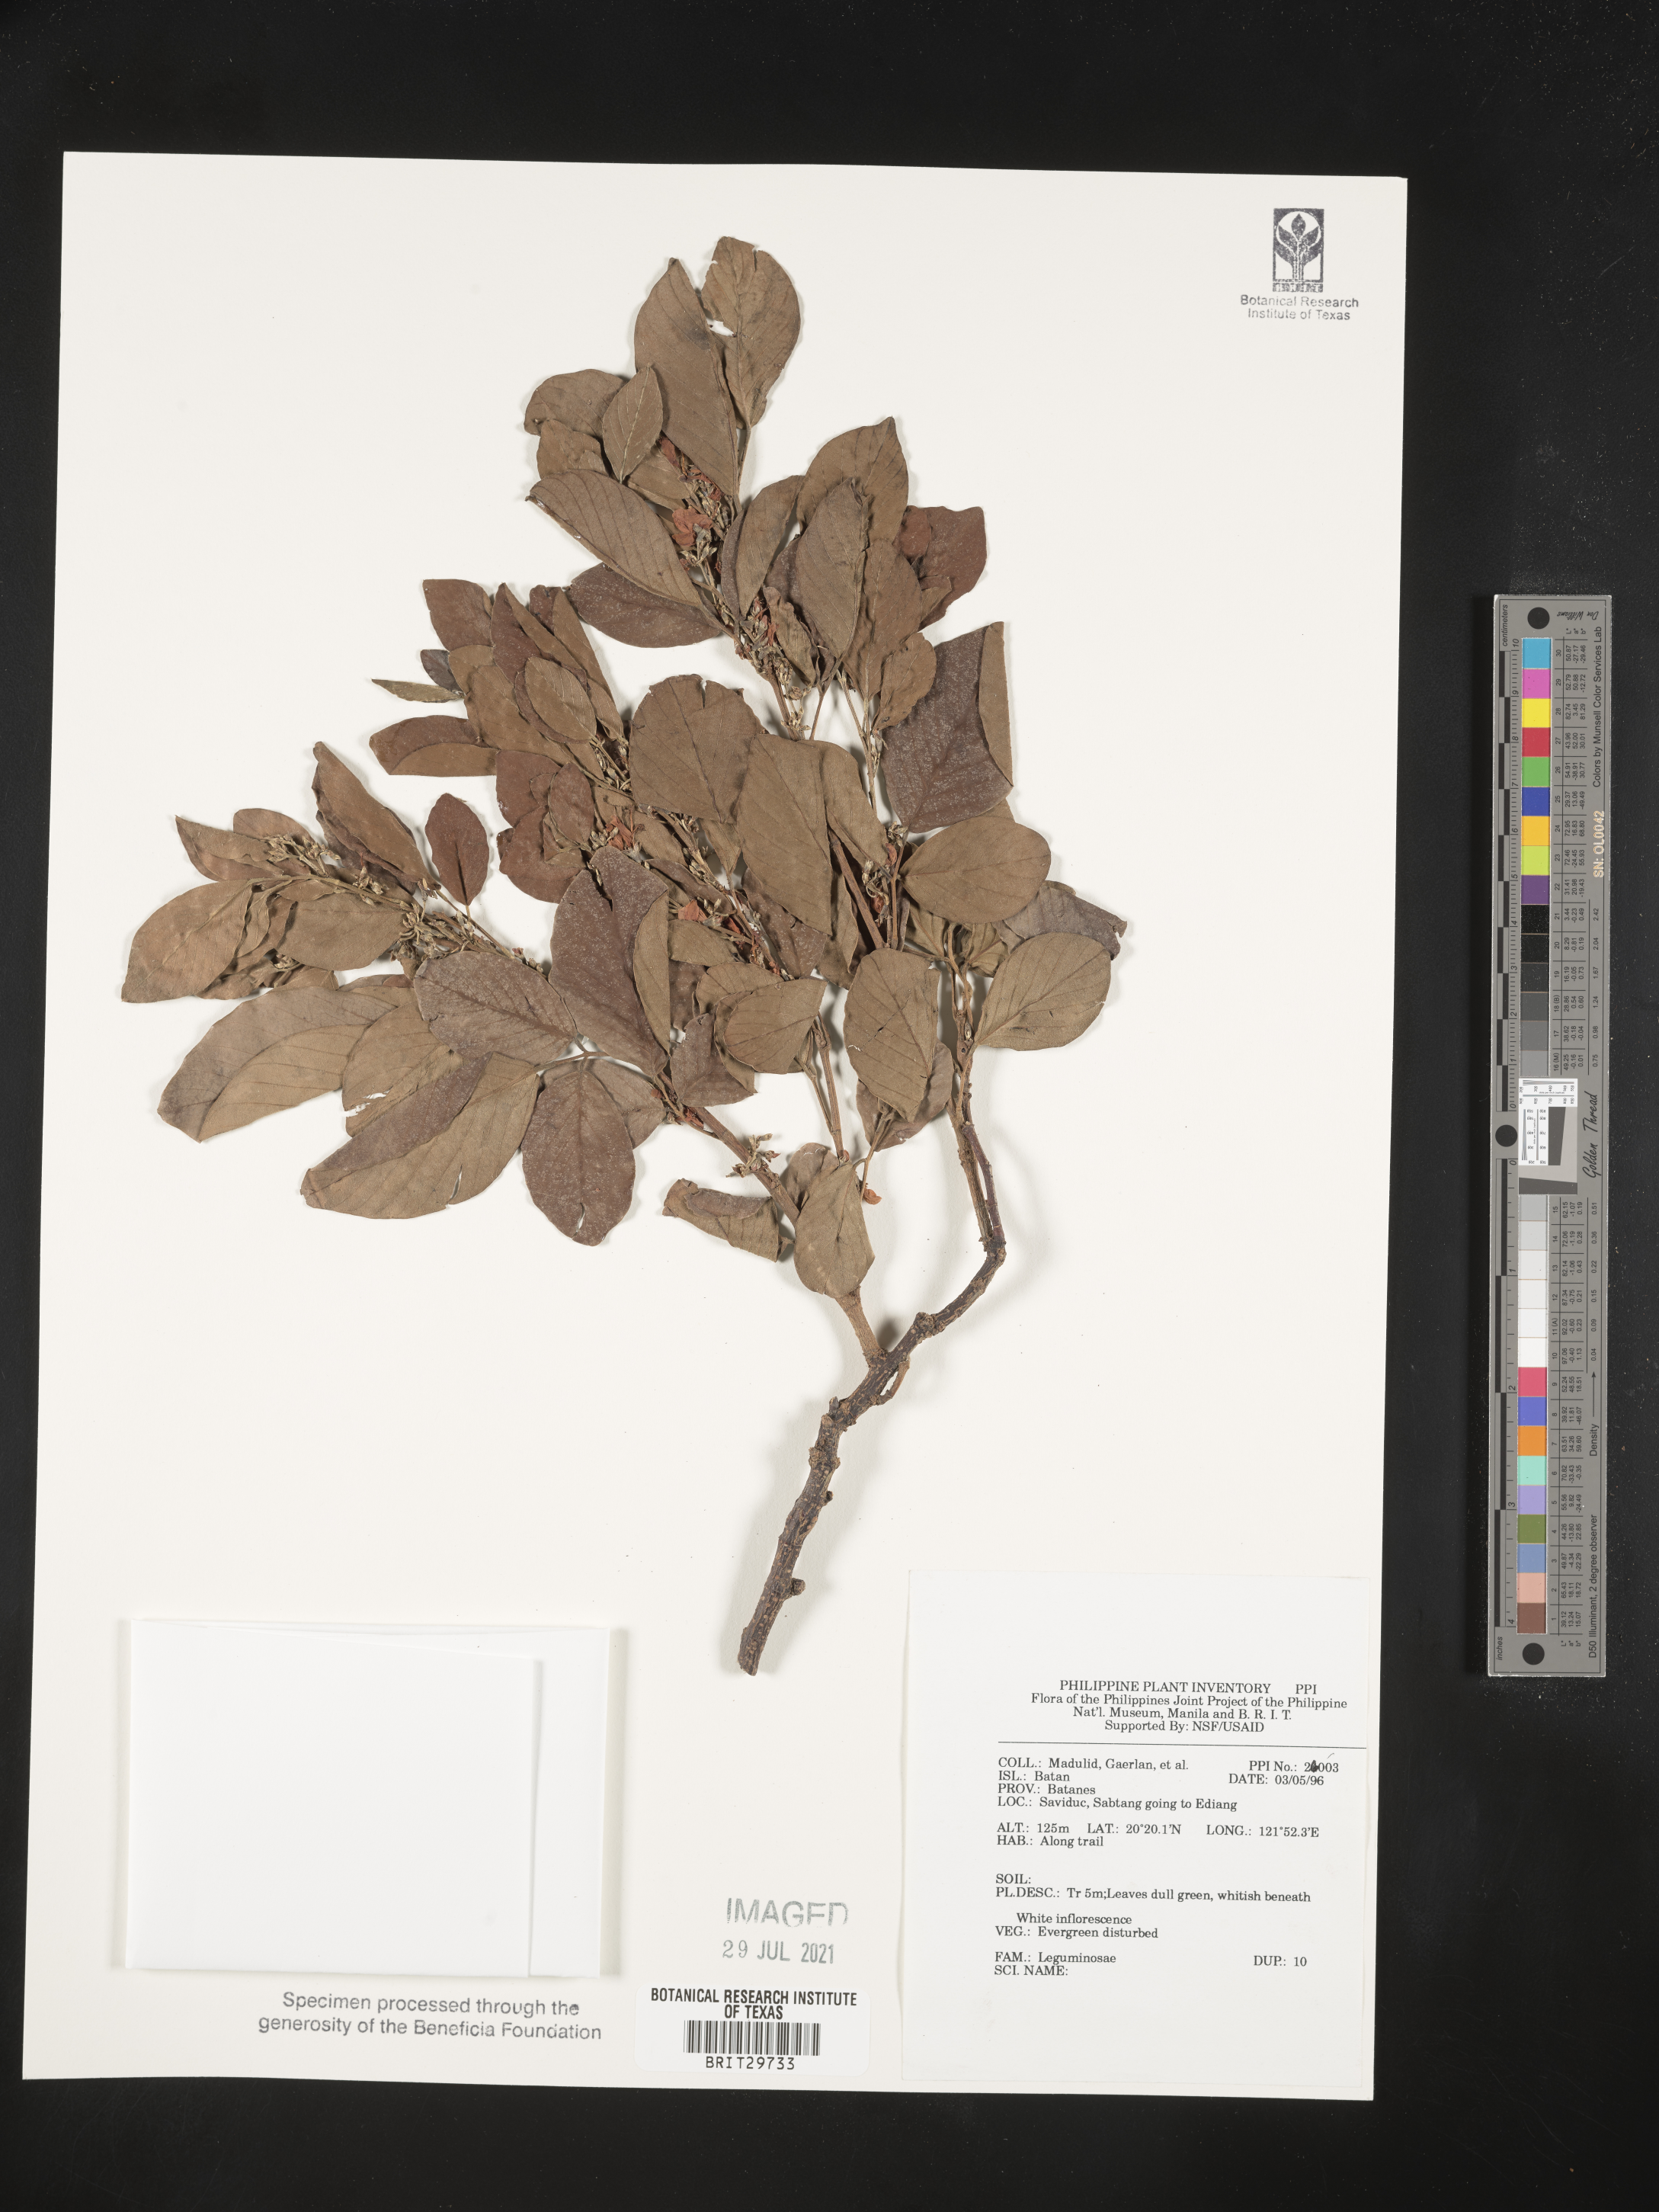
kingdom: Plantae
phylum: Tracheophyta
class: Magnoliopsida
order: Fabales
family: Fabaceae
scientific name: Fabaceae
